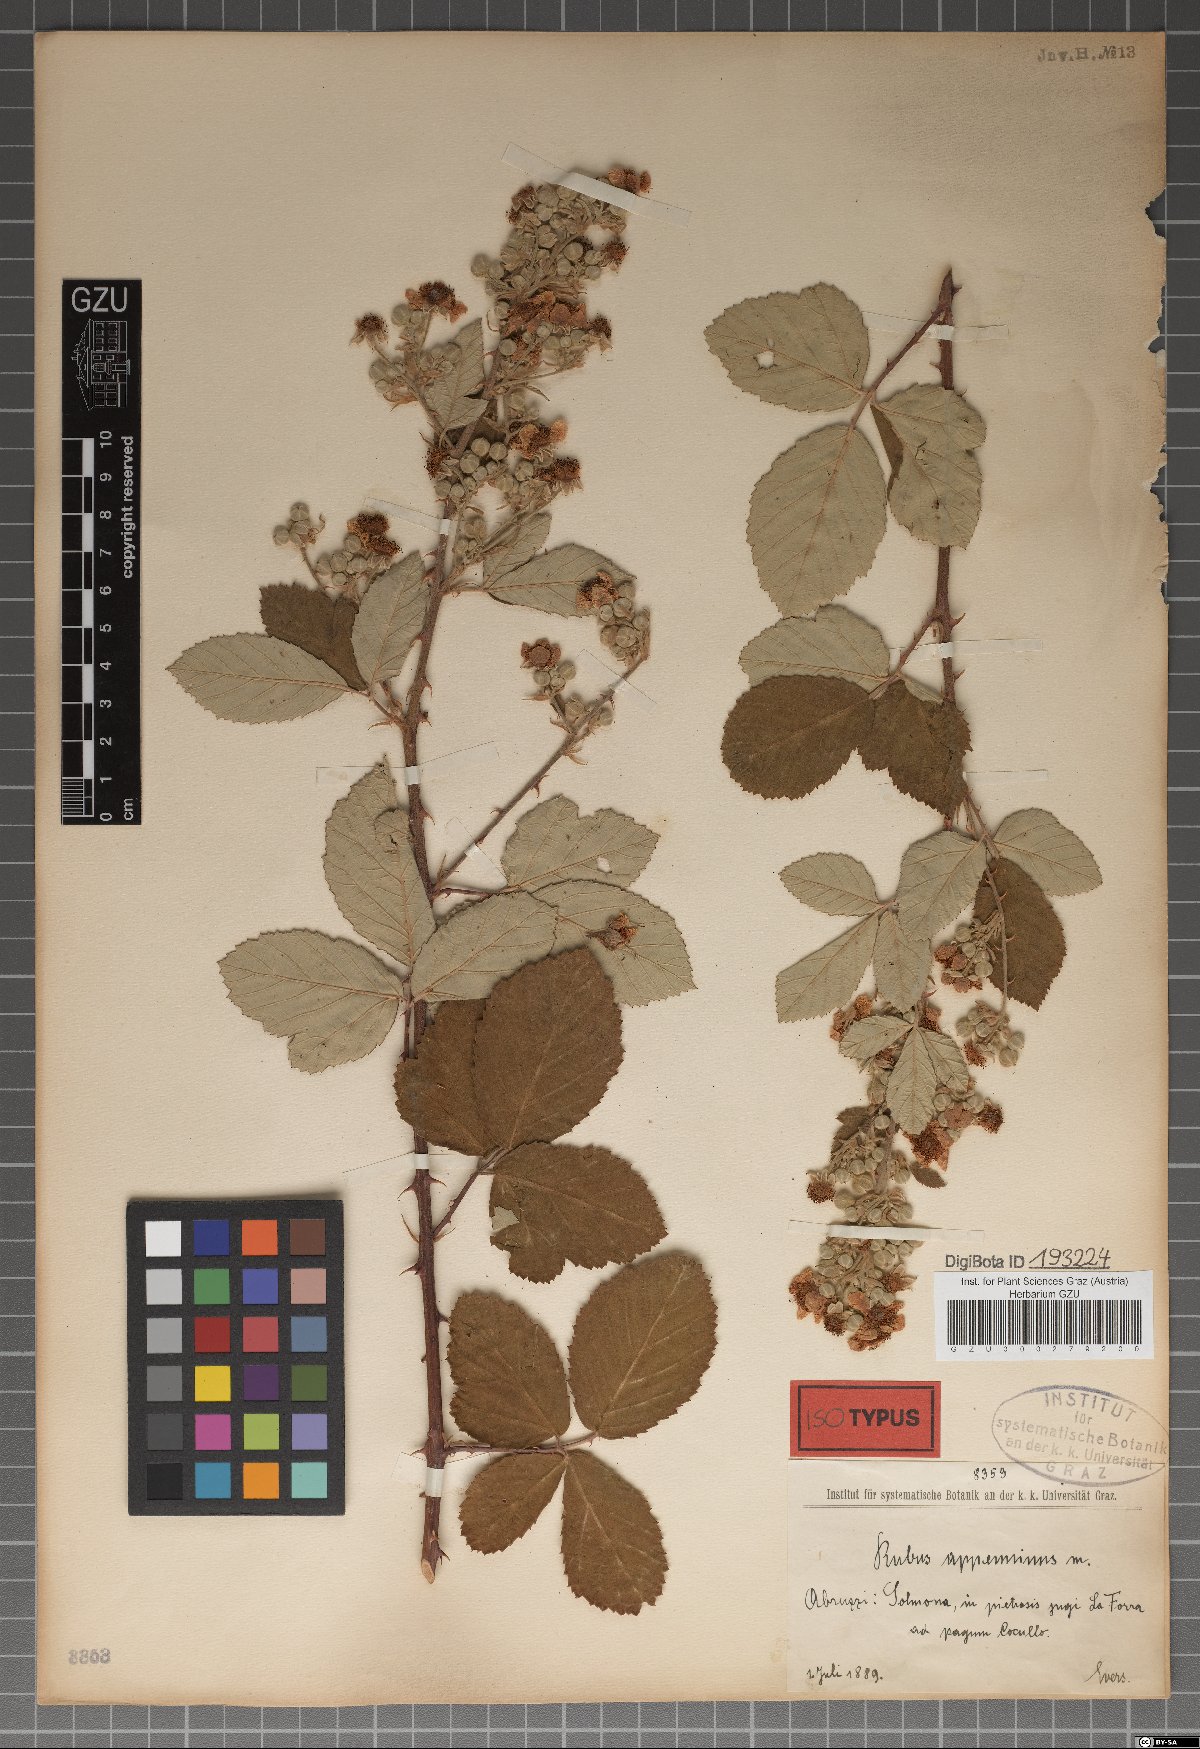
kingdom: Plantae
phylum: Tracheophyta
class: Magnoliopsida
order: Rosales
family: Rosaceae
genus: Rubus
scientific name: Rubus ulmifolius
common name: Elmleaf blackberry
